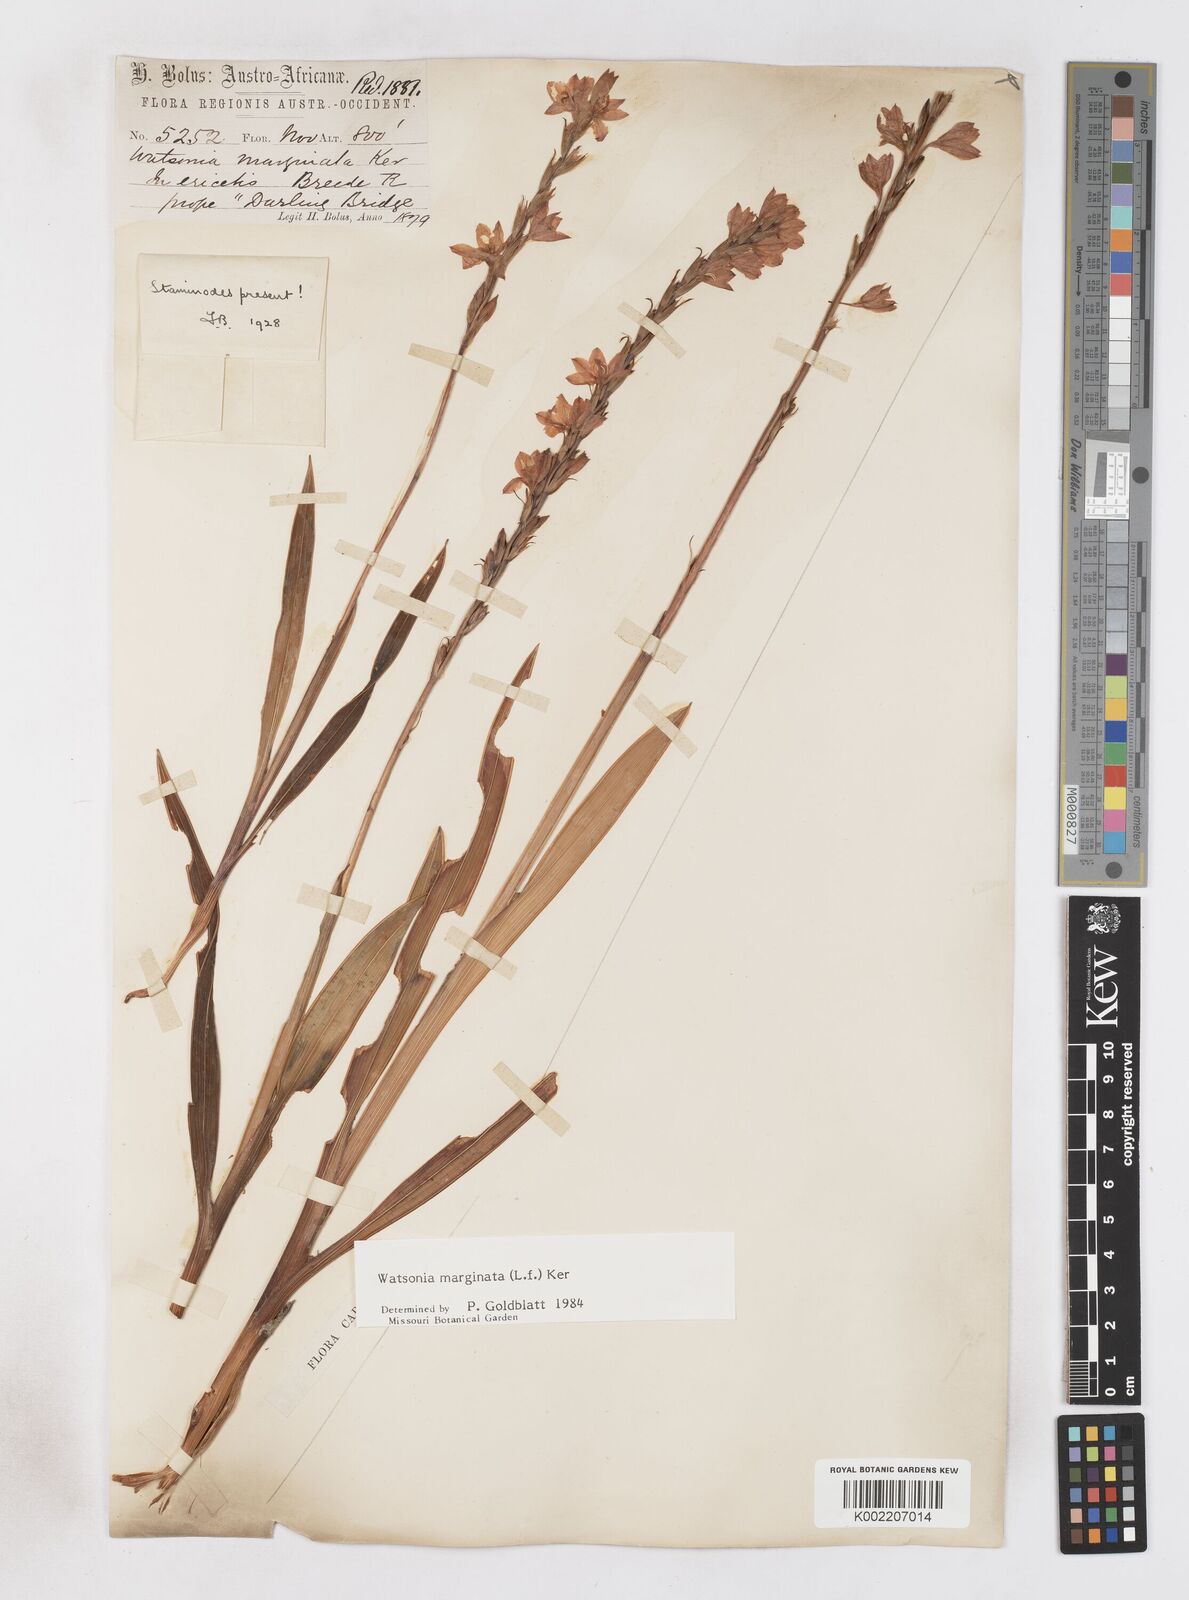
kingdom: Plantae
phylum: Tracheophyta
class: Liliopsida
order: Asparagales
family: Iridaceae
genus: Watsonia
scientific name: Watsonia marginata
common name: Fragrant bugle-lily
